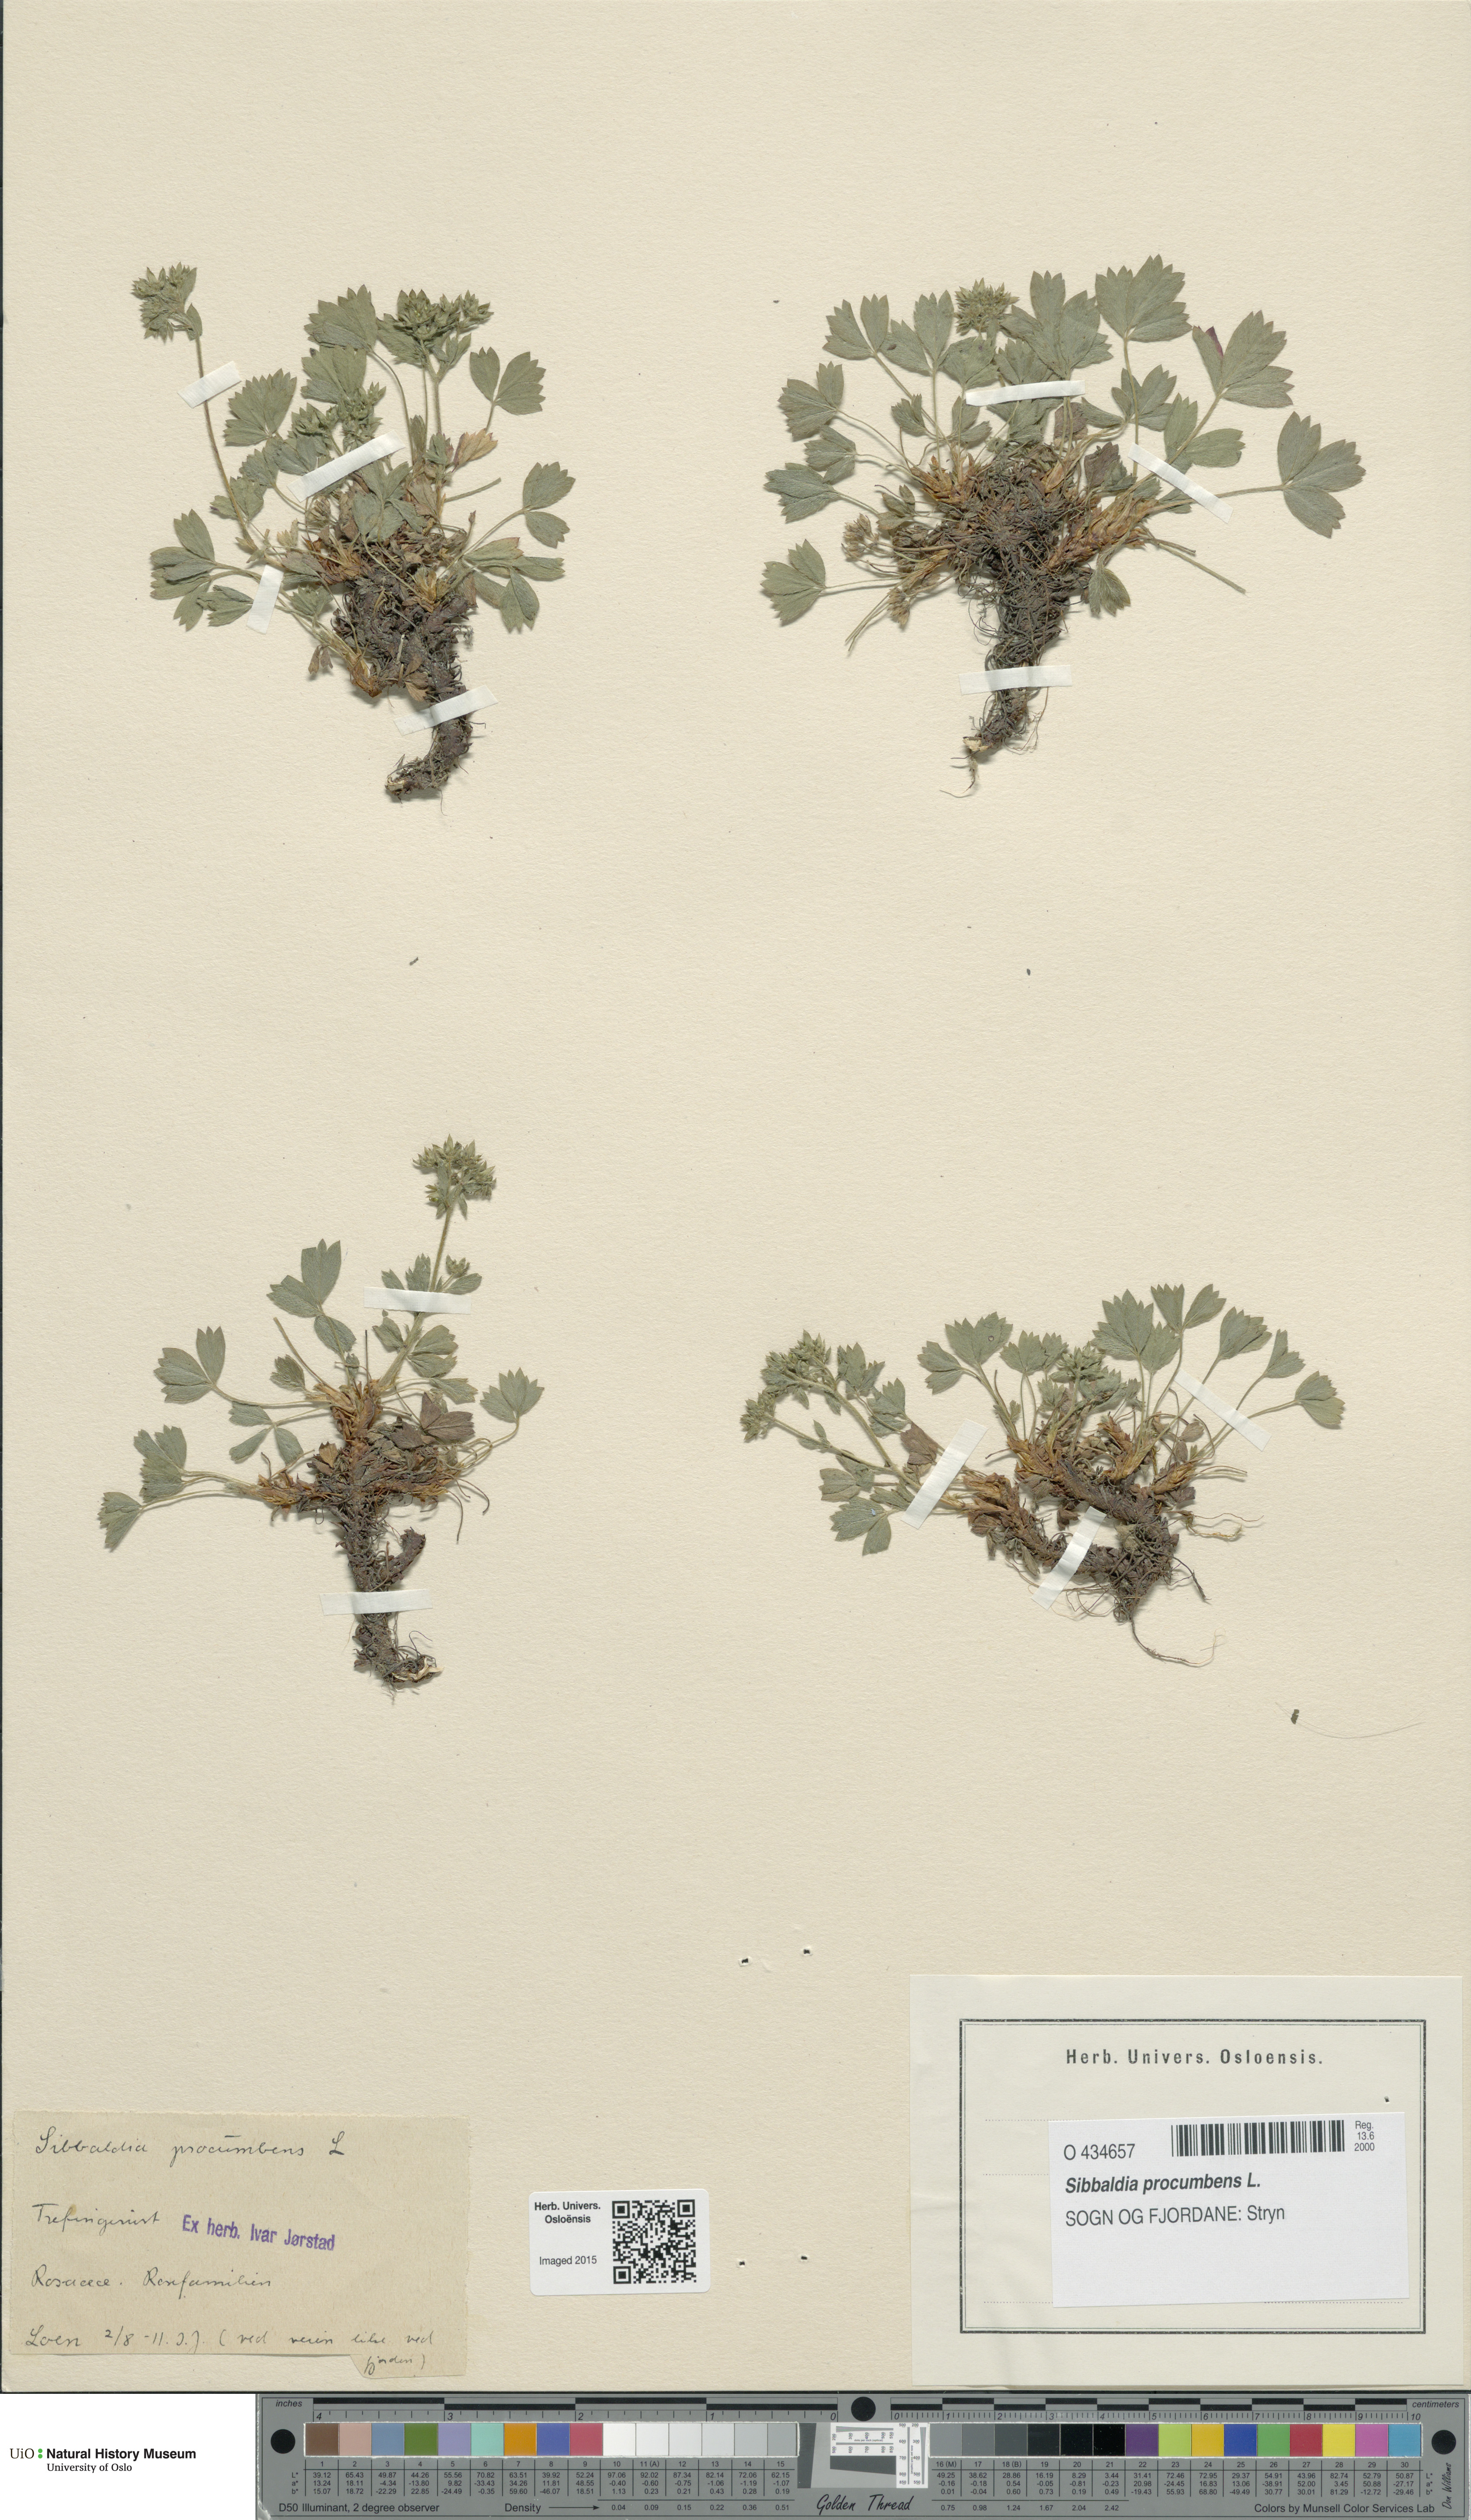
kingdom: Plantae
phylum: Tracheophyta
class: Magnoliopsida
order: Rosales
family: Rosaceae
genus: Sibbaldia
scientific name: Sibbaldia procumbens
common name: Creeping sibbaldia
